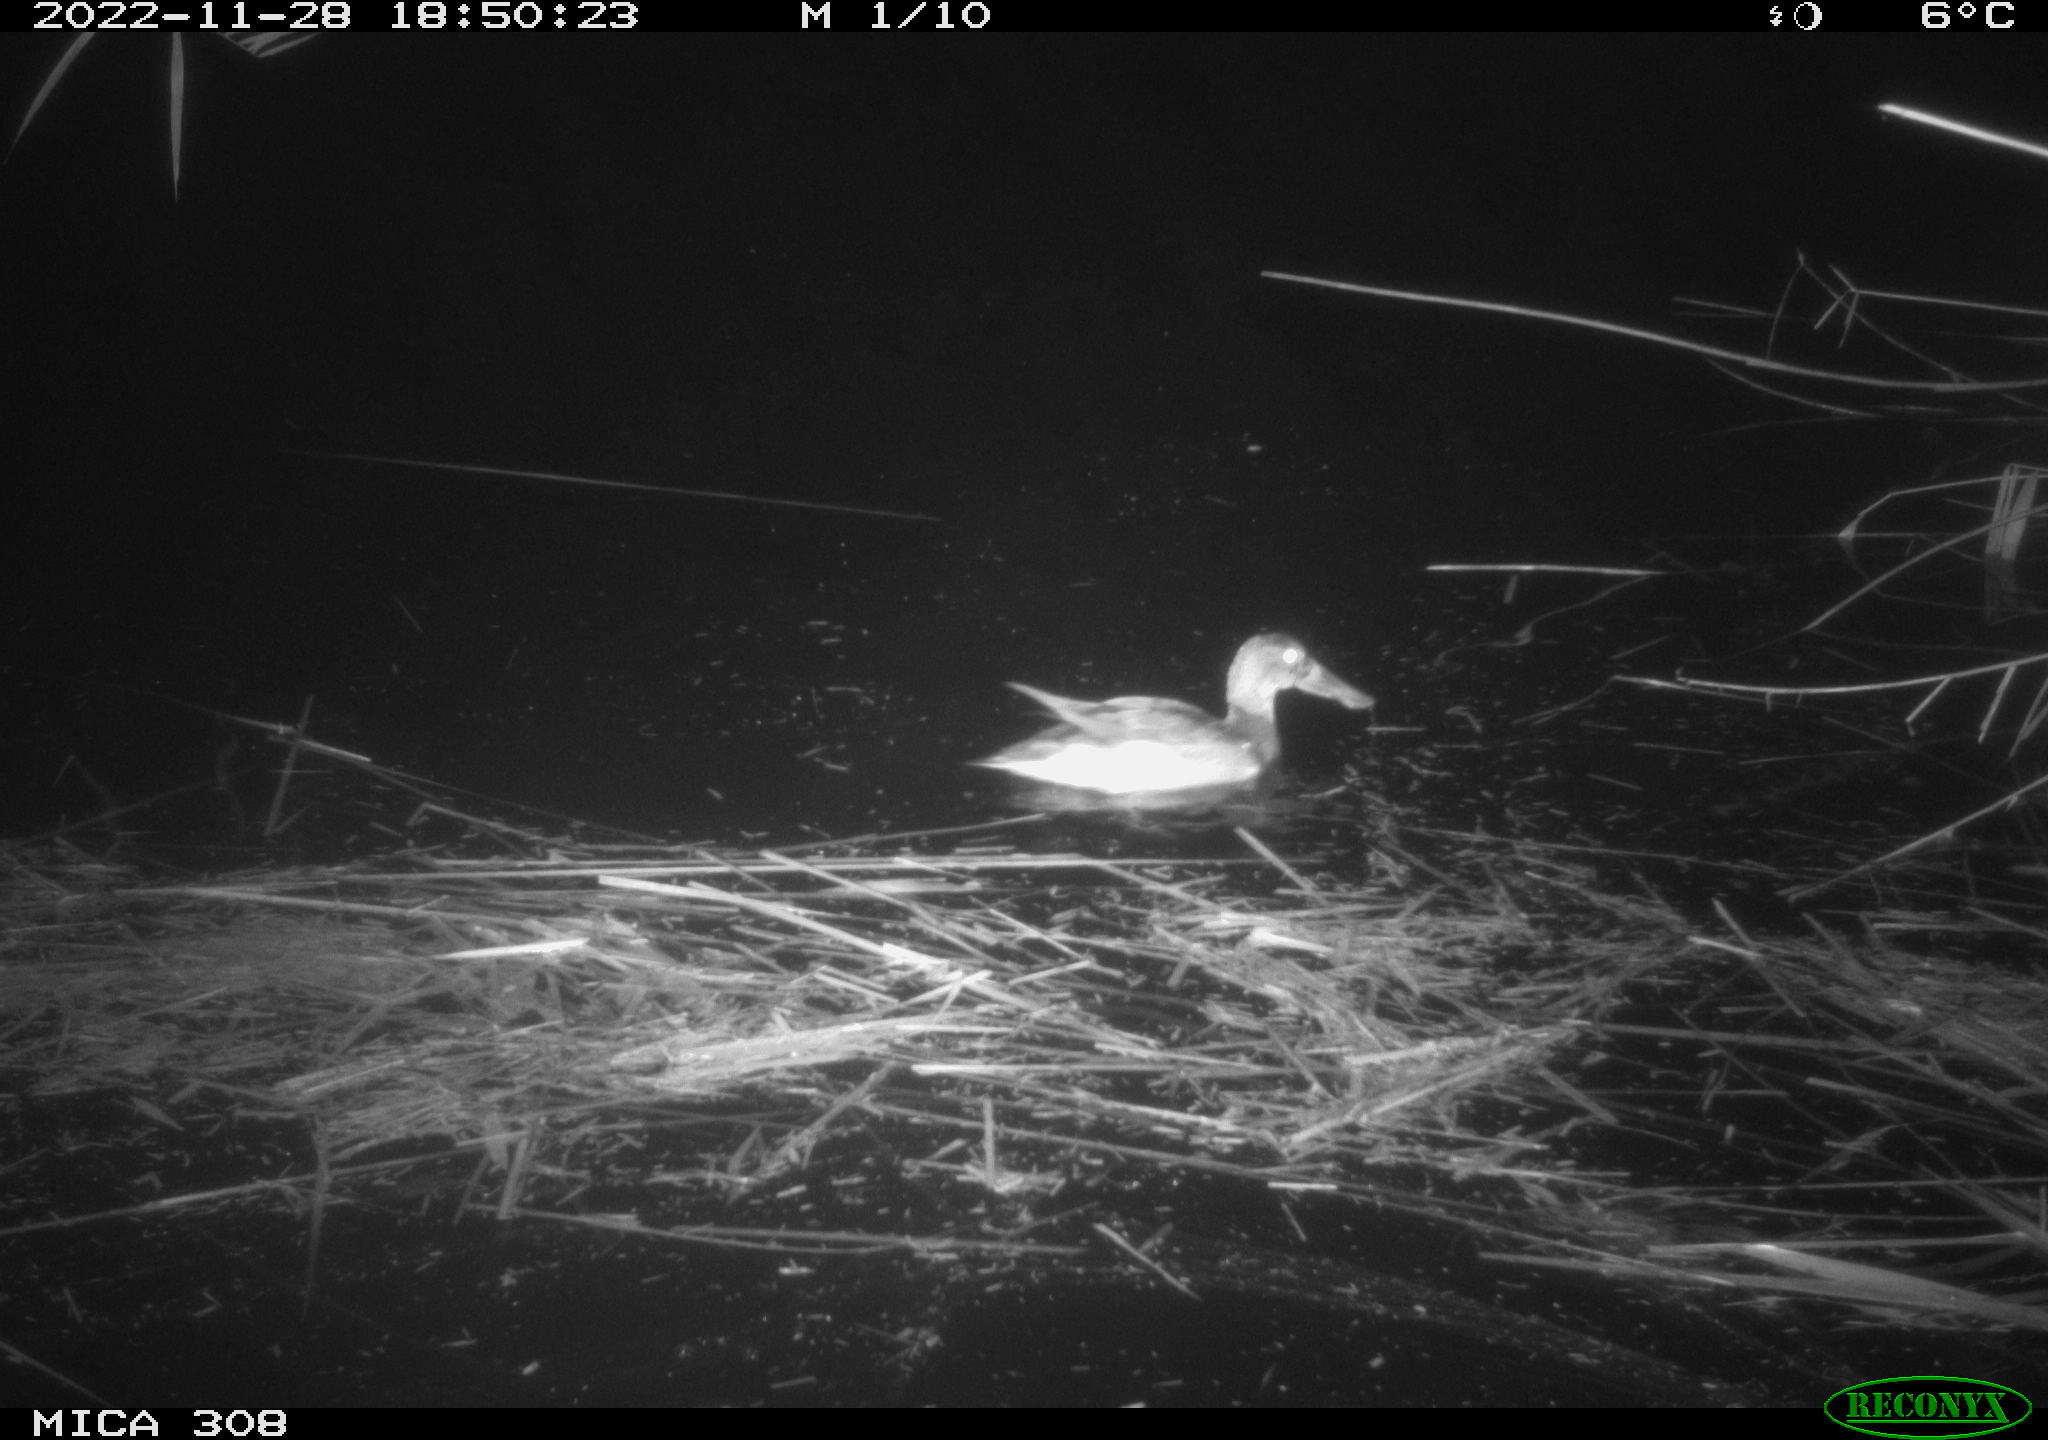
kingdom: Animalia
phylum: Chordata
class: Aves
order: Anseriformes
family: Anatidae
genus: Anas
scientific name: Anas
